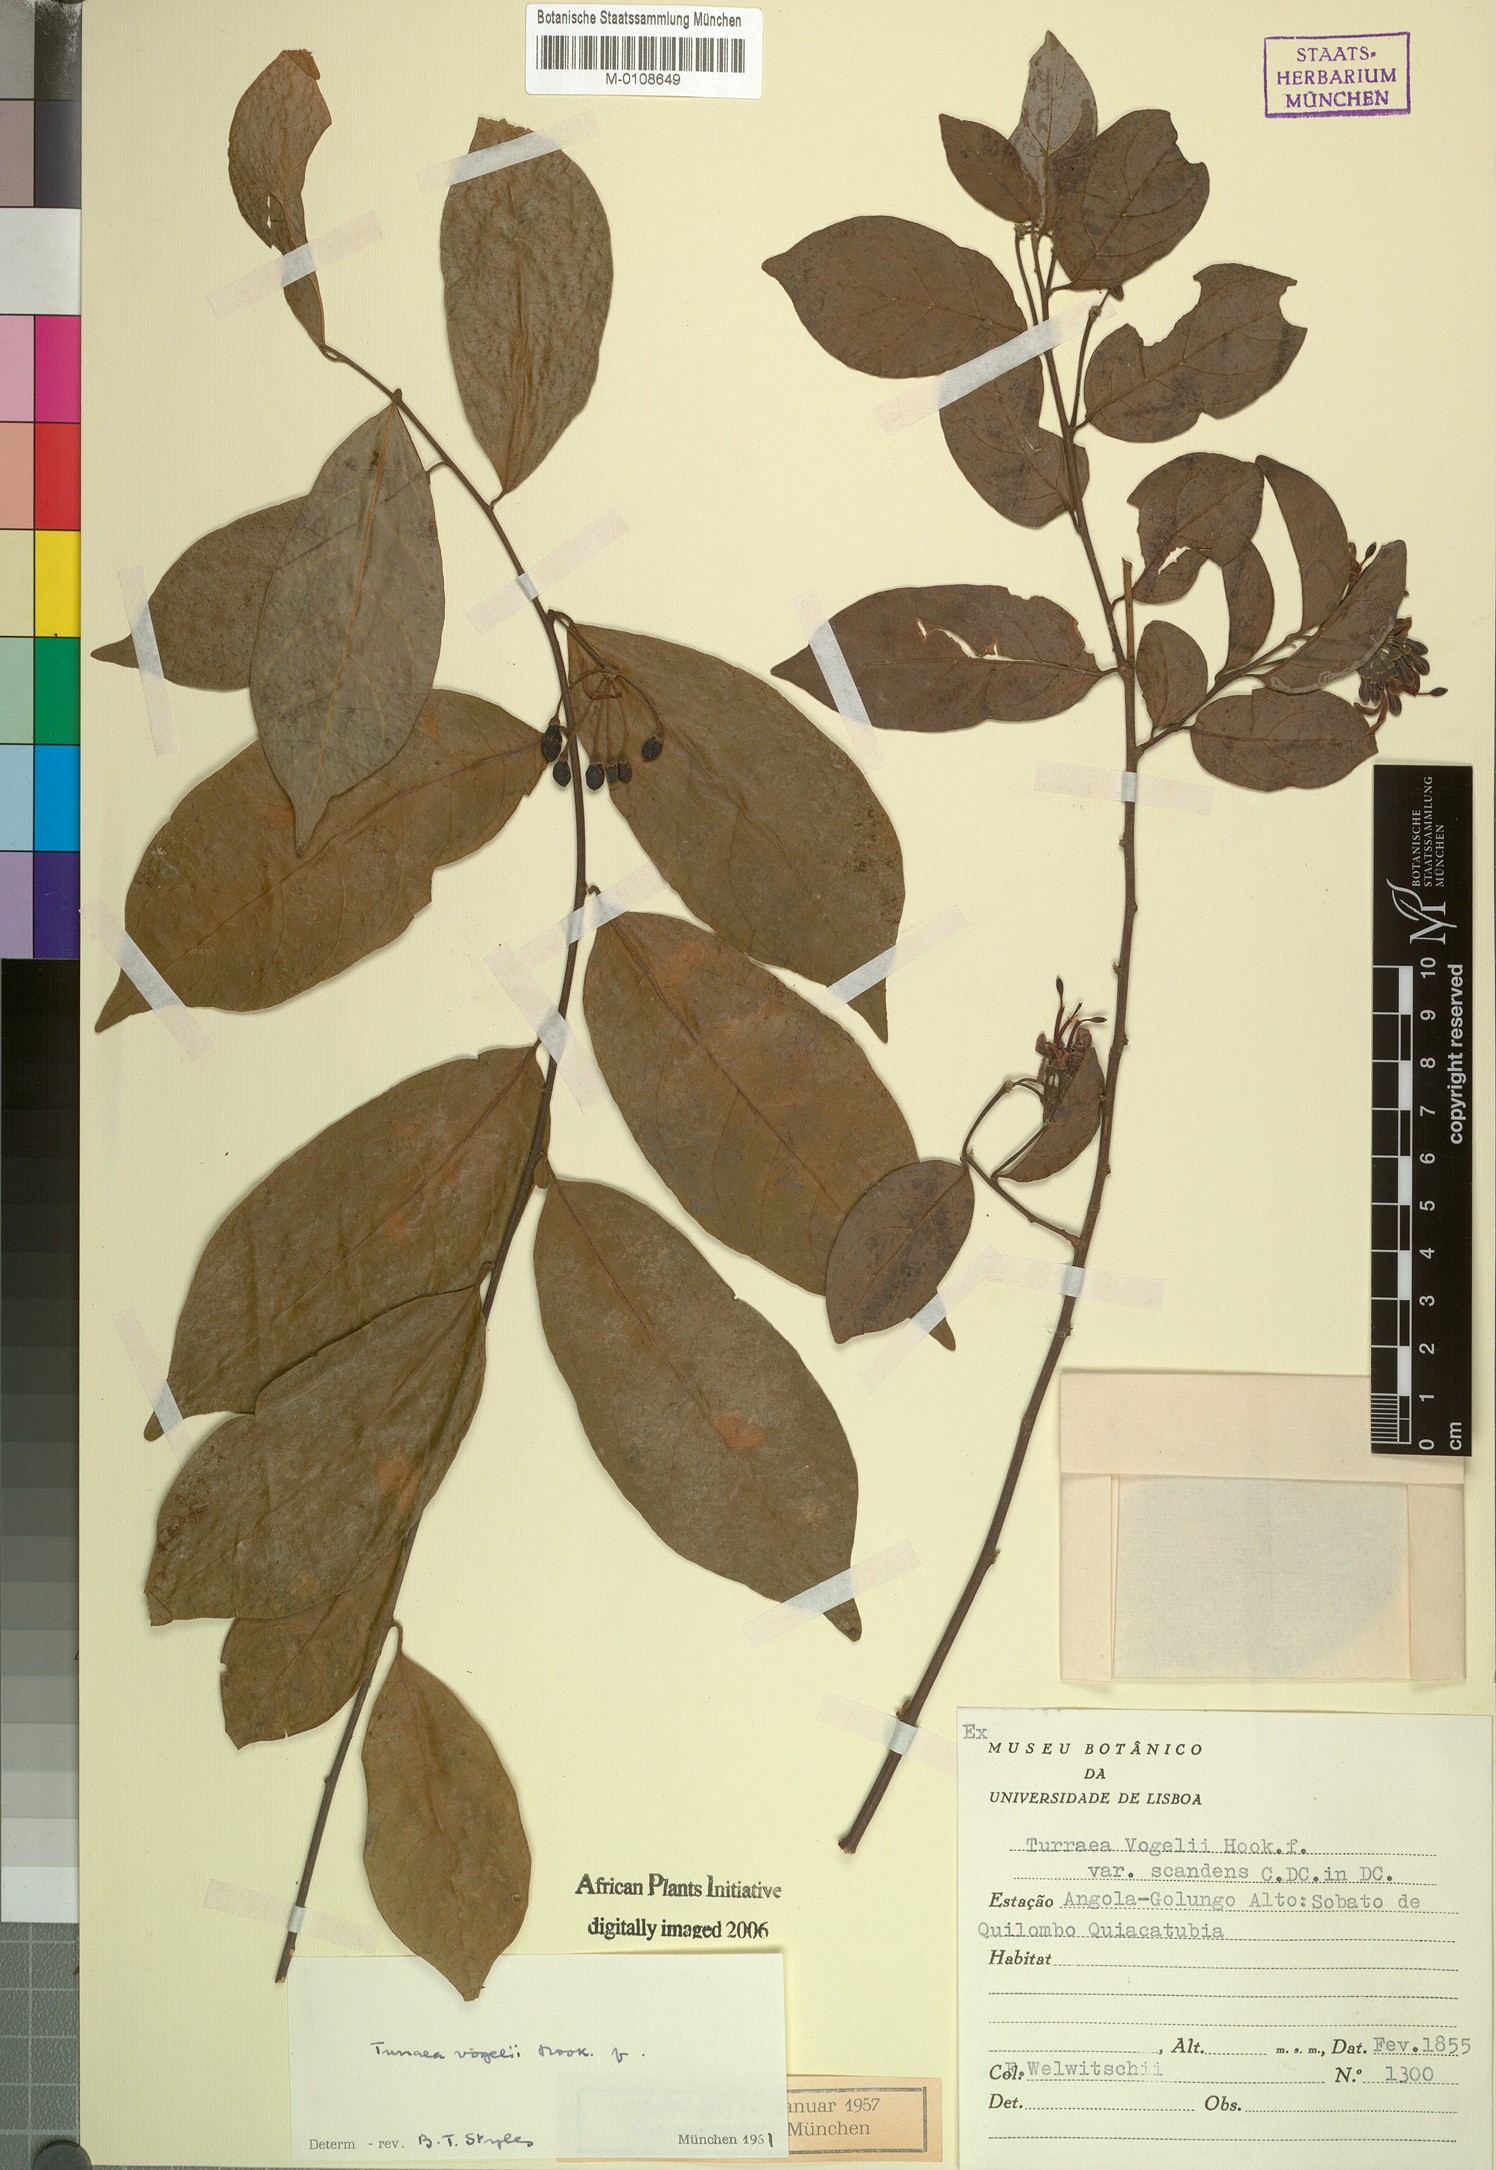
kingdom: Plantae
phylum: Tracheophyta
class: Magnoliopsida
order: Sapindales
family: Meliaceae
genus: Turraea
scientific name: Turraea vogelii
